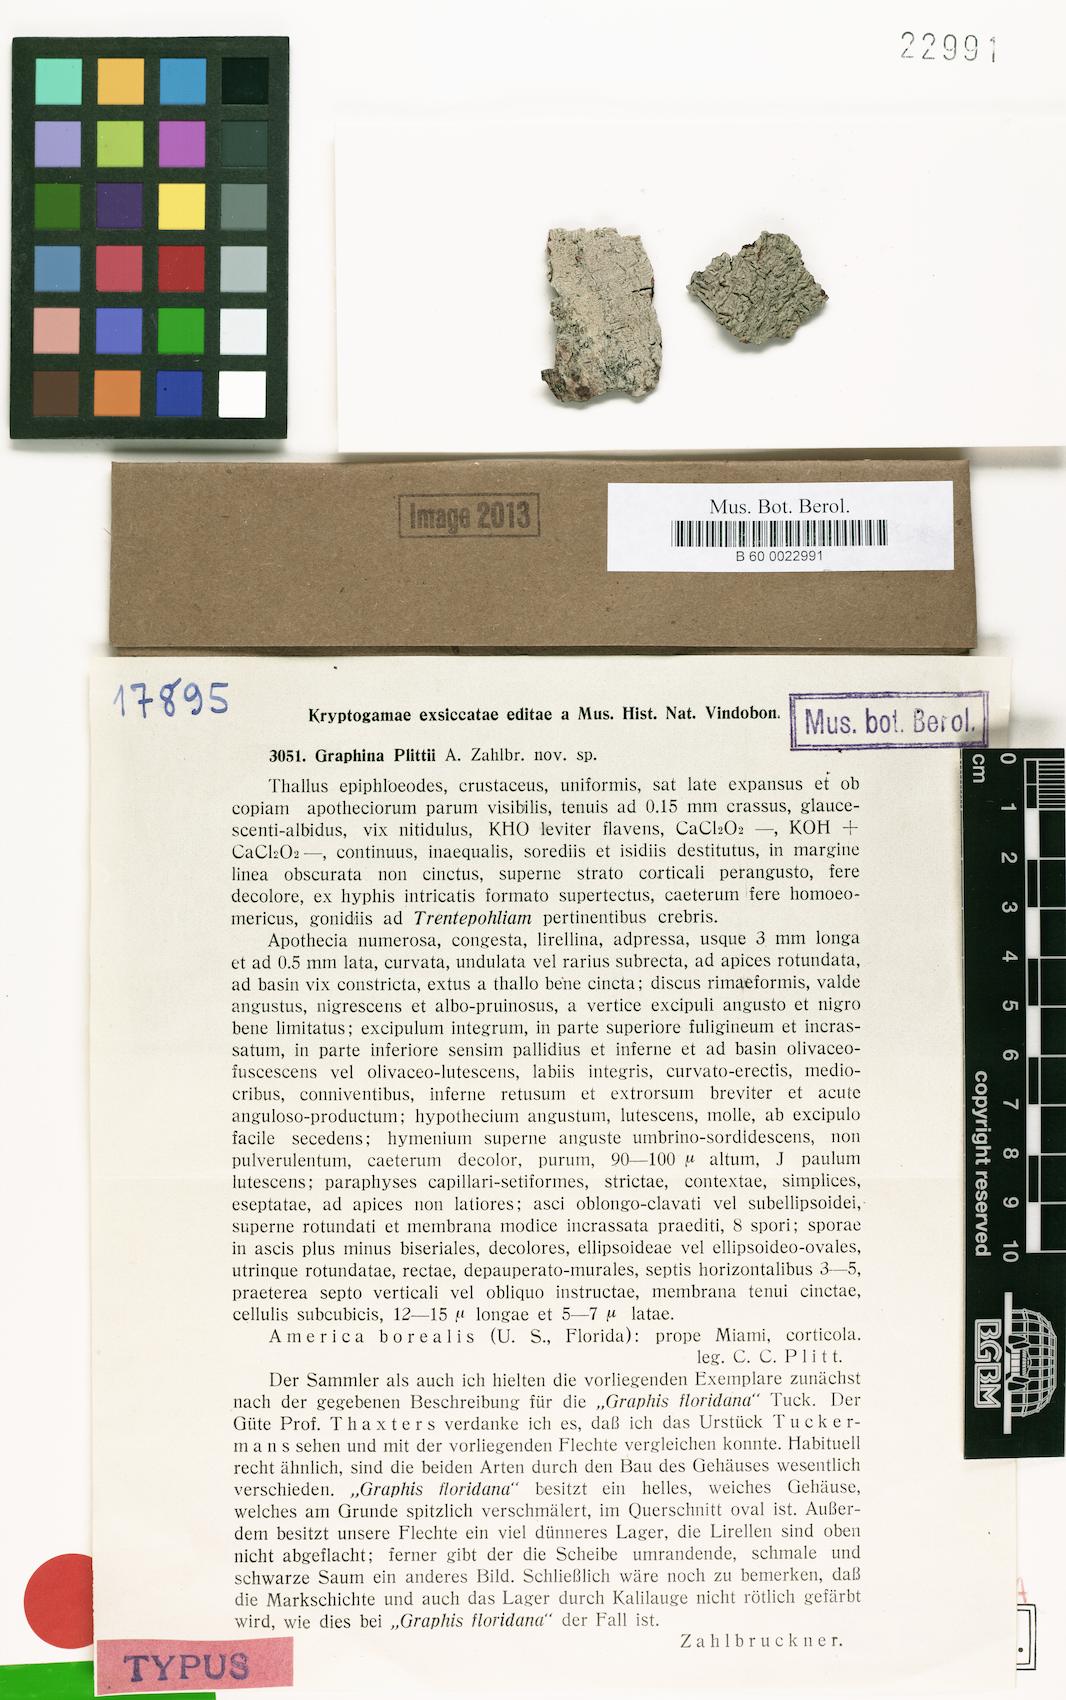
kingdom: Fungi
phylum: Ascomycota
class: Lecanoromycetes
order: Ostropales
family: Graphidaceae
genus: Graphina
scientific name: Graphina plittii
